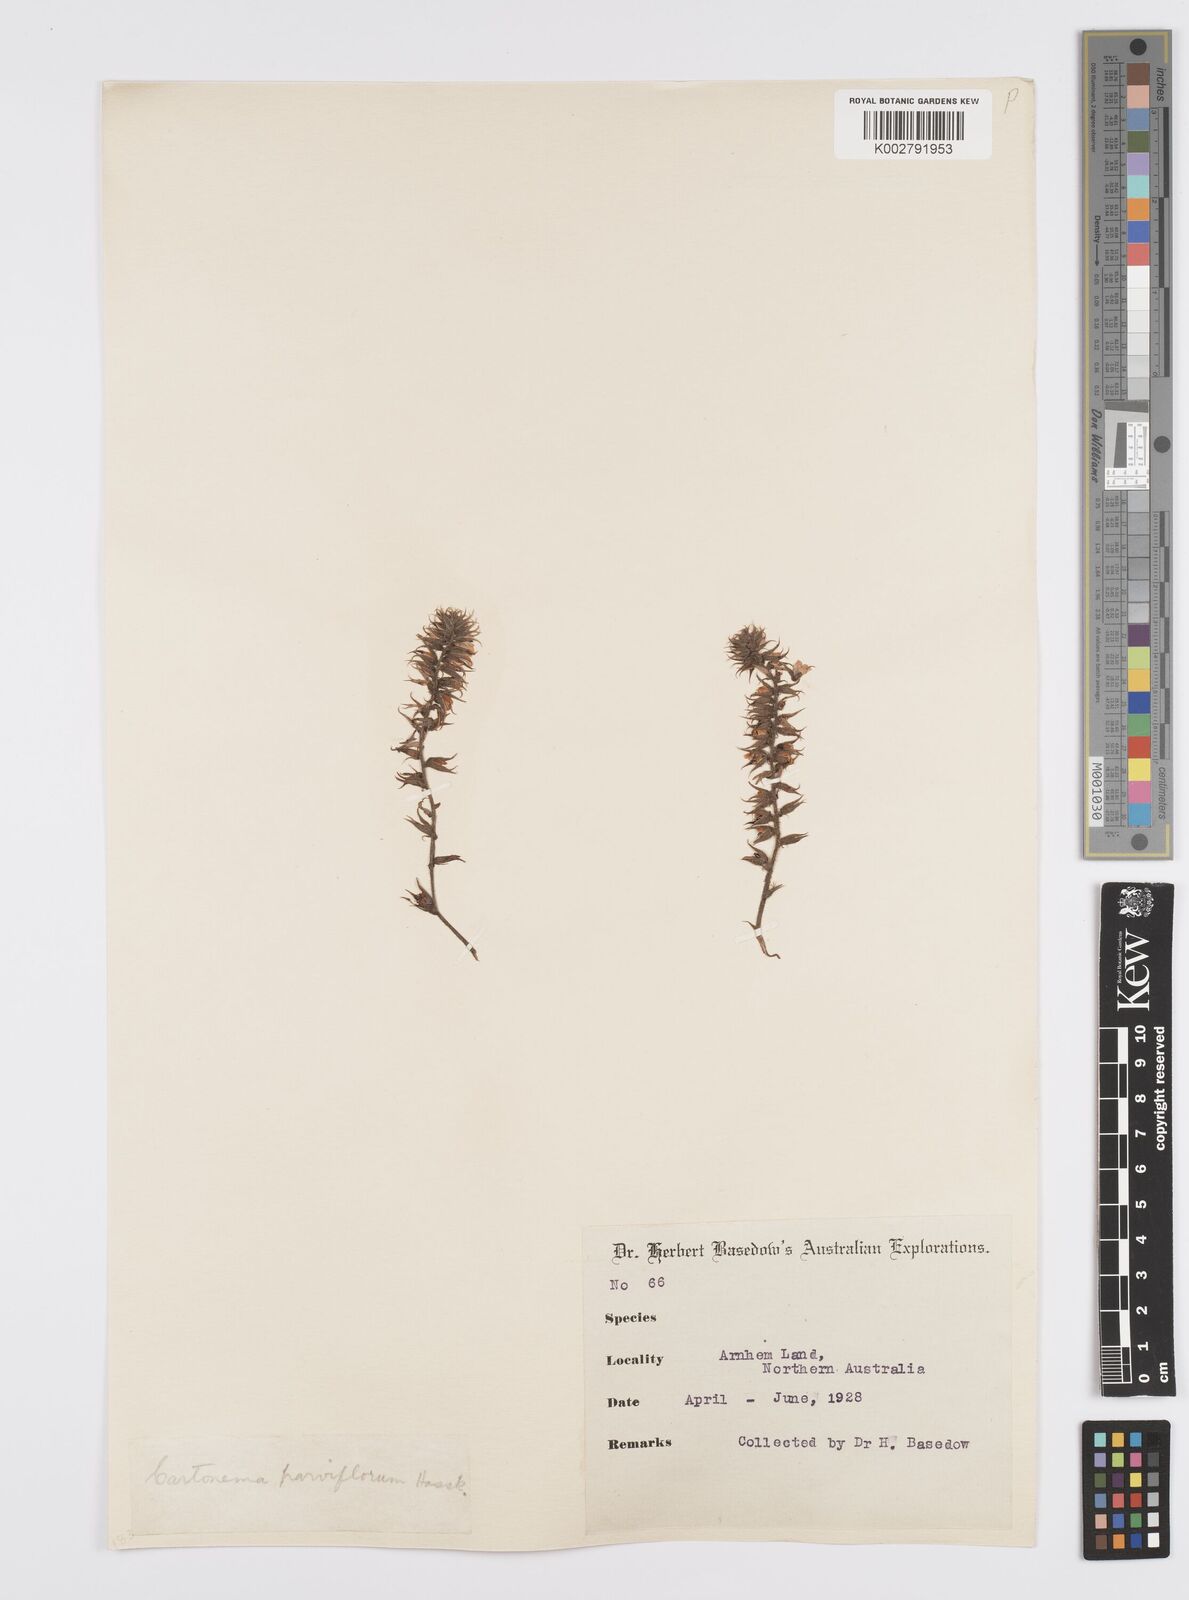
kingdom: Plantae
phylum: Tracheophyta
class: Liliopsida
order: Commelinales
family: Commelinaceae
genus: Cartonema
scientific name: Cartonema parviflorum
